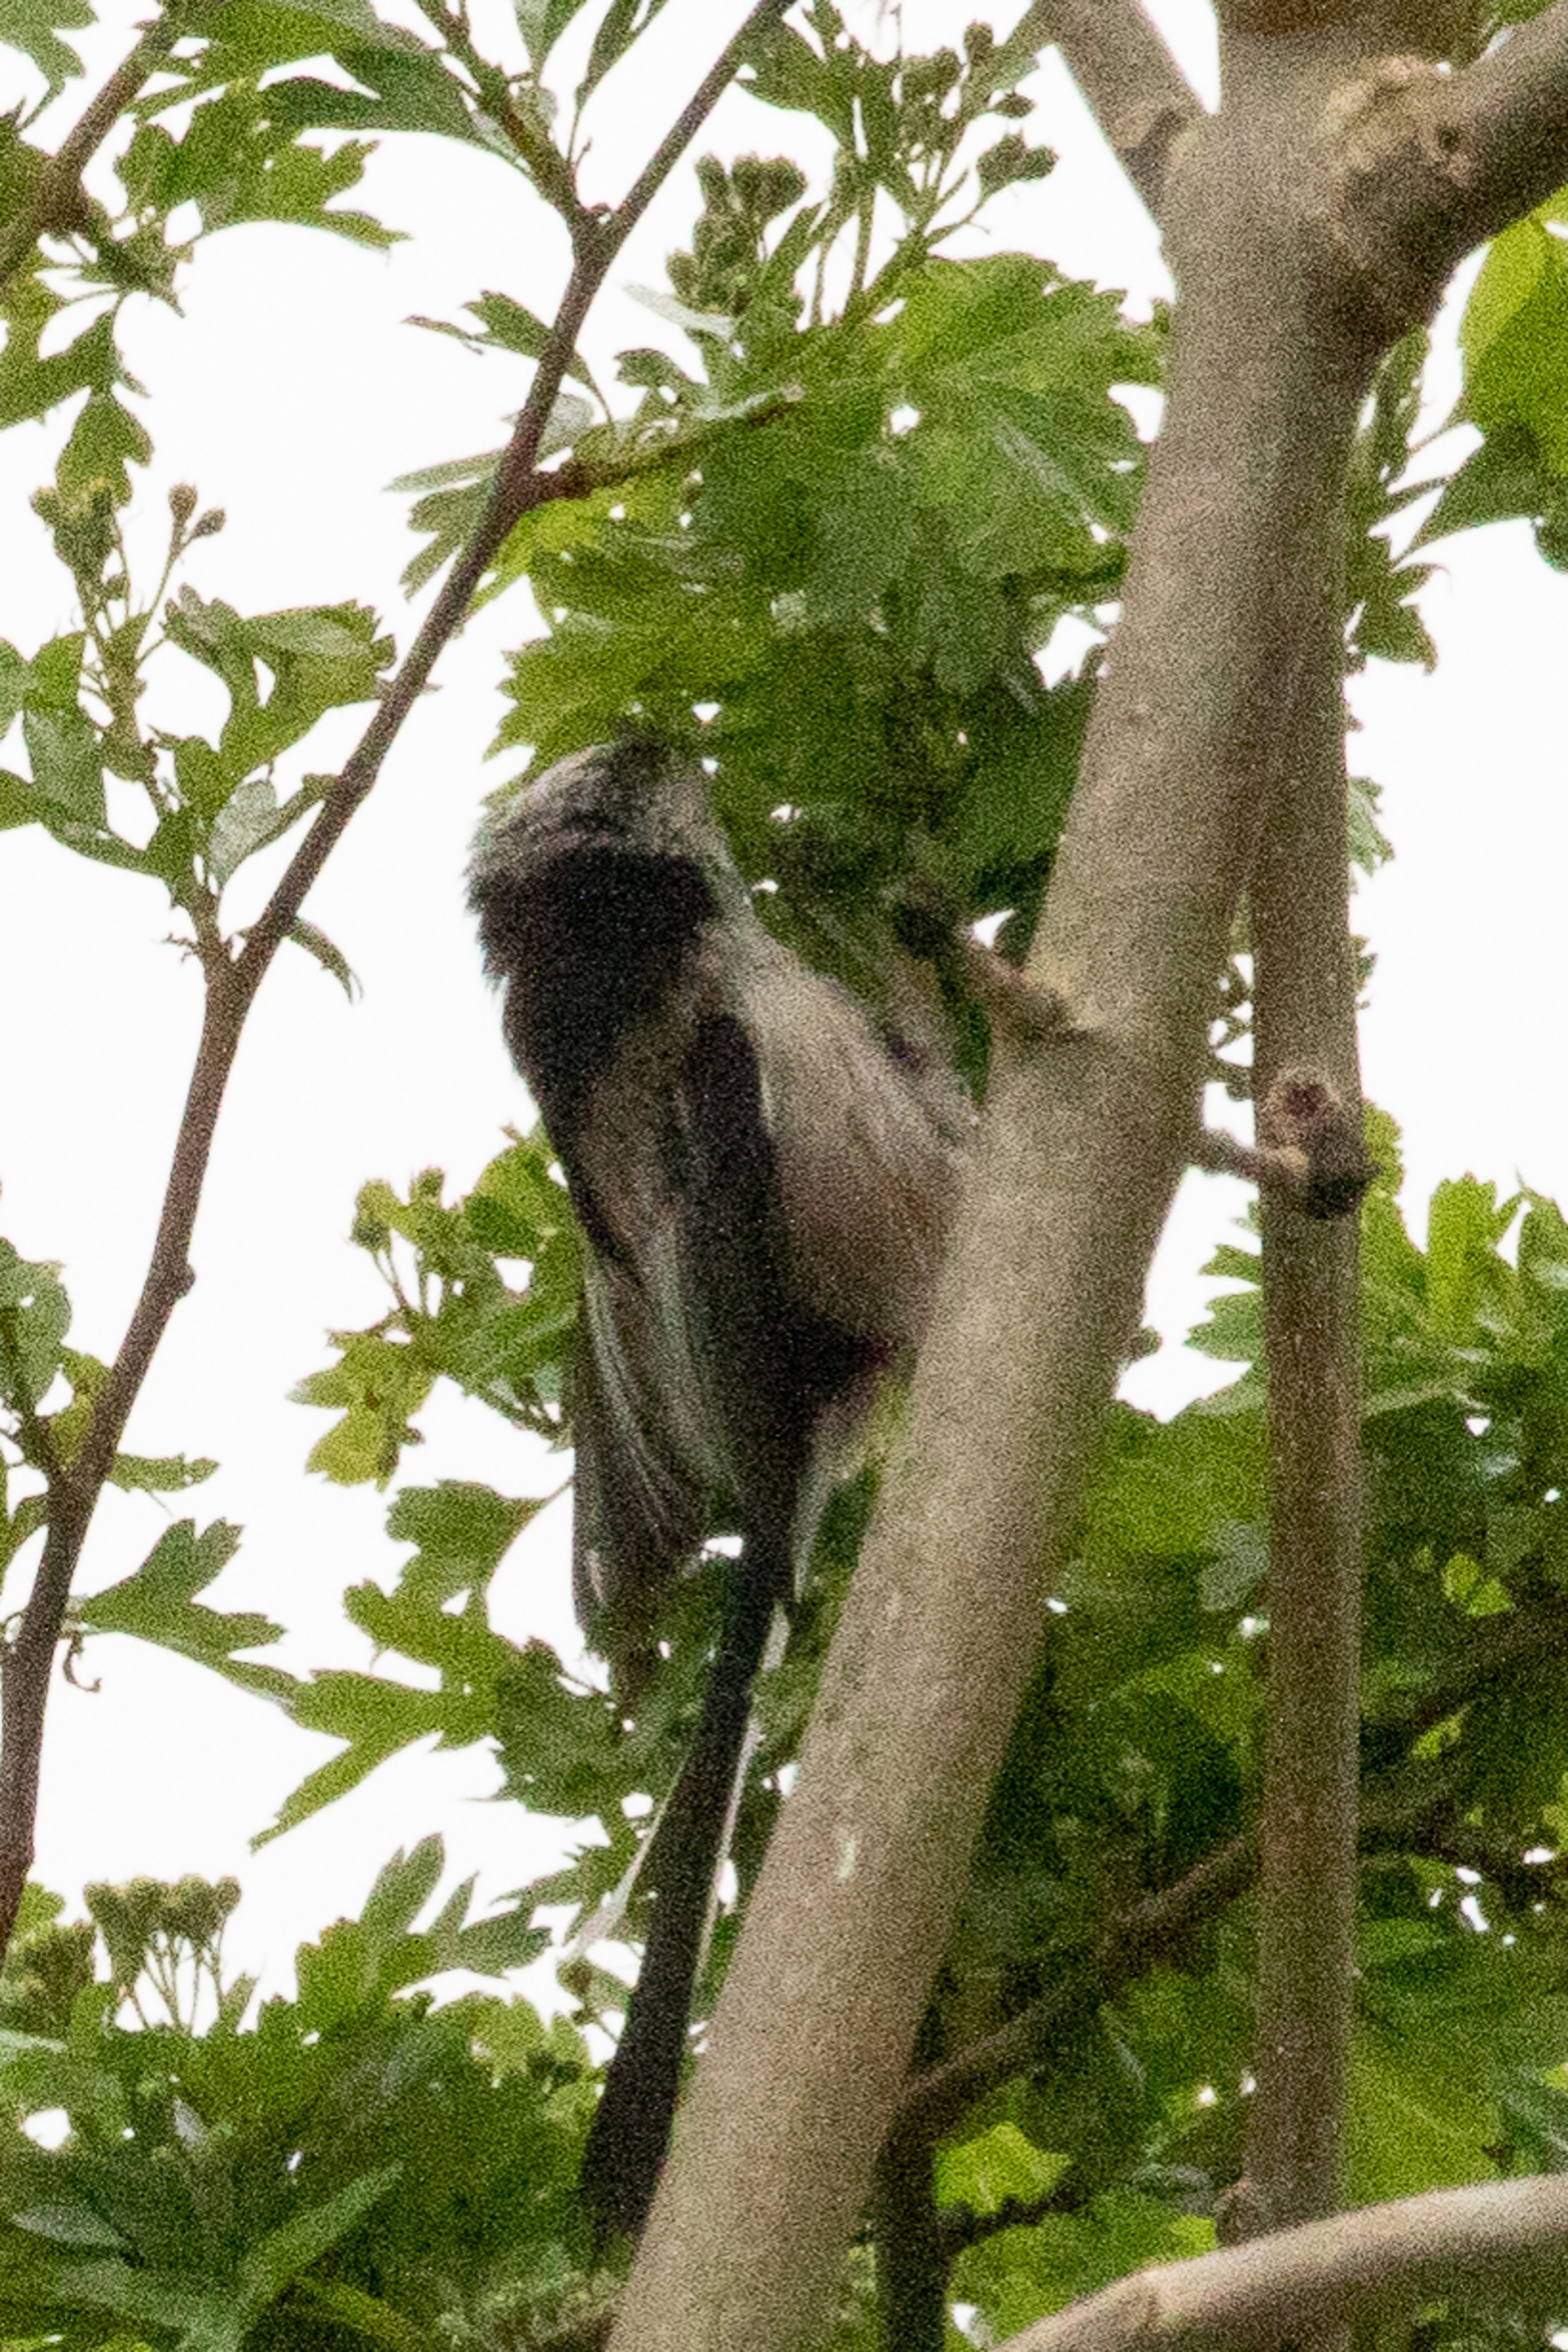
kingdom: Animalia
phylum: Chordata
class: Aves
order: Passeriformes
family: Aegithalidae
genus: Aegithalos
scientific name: Aegithalos caudatus
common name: Halemejse
